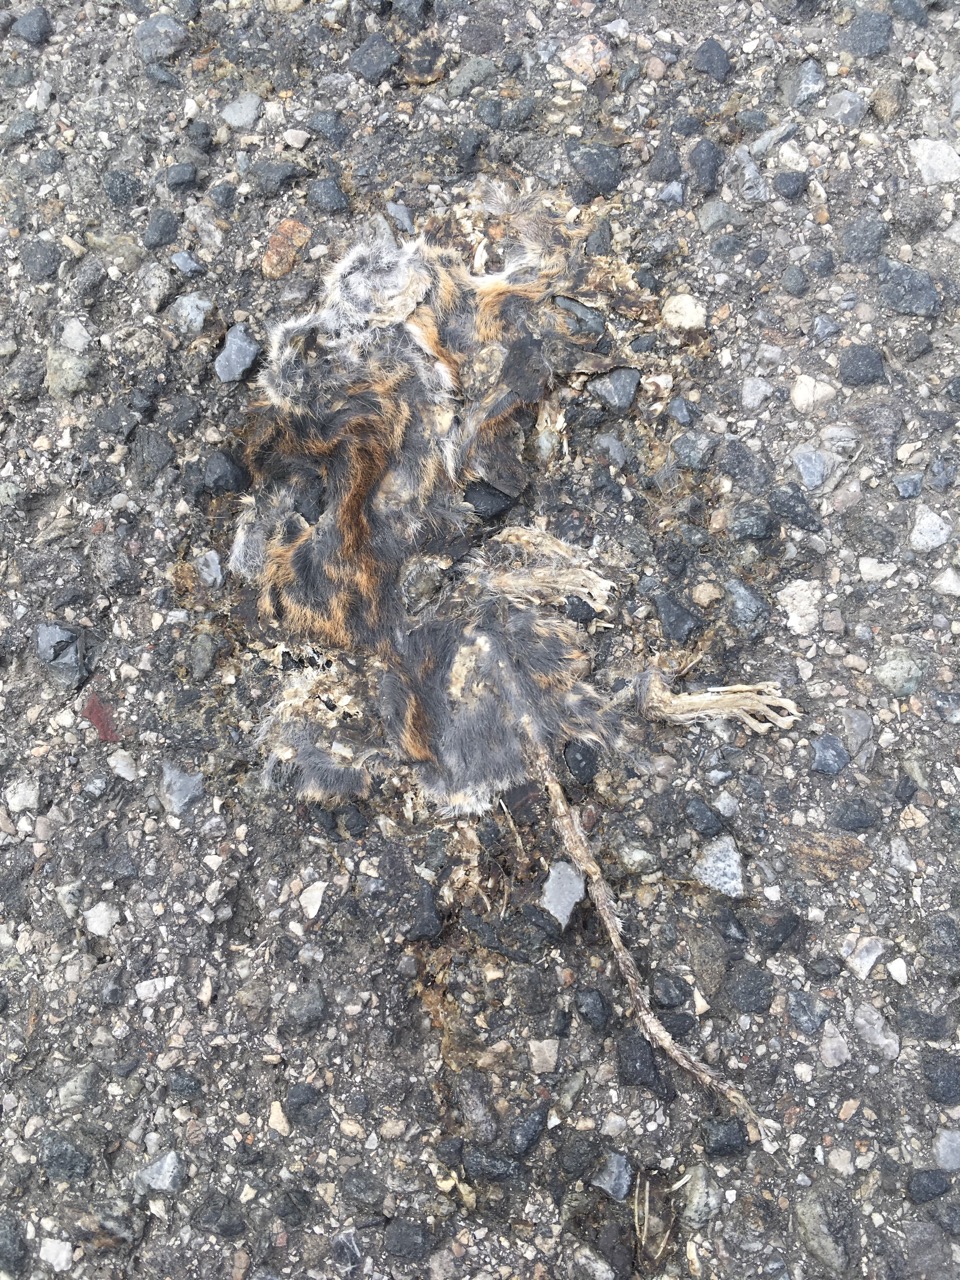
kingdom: Animalia
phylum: Chordata
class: Mammalia
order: Rodentia
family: Muridae
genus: Apodemus
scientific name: Apodemus
